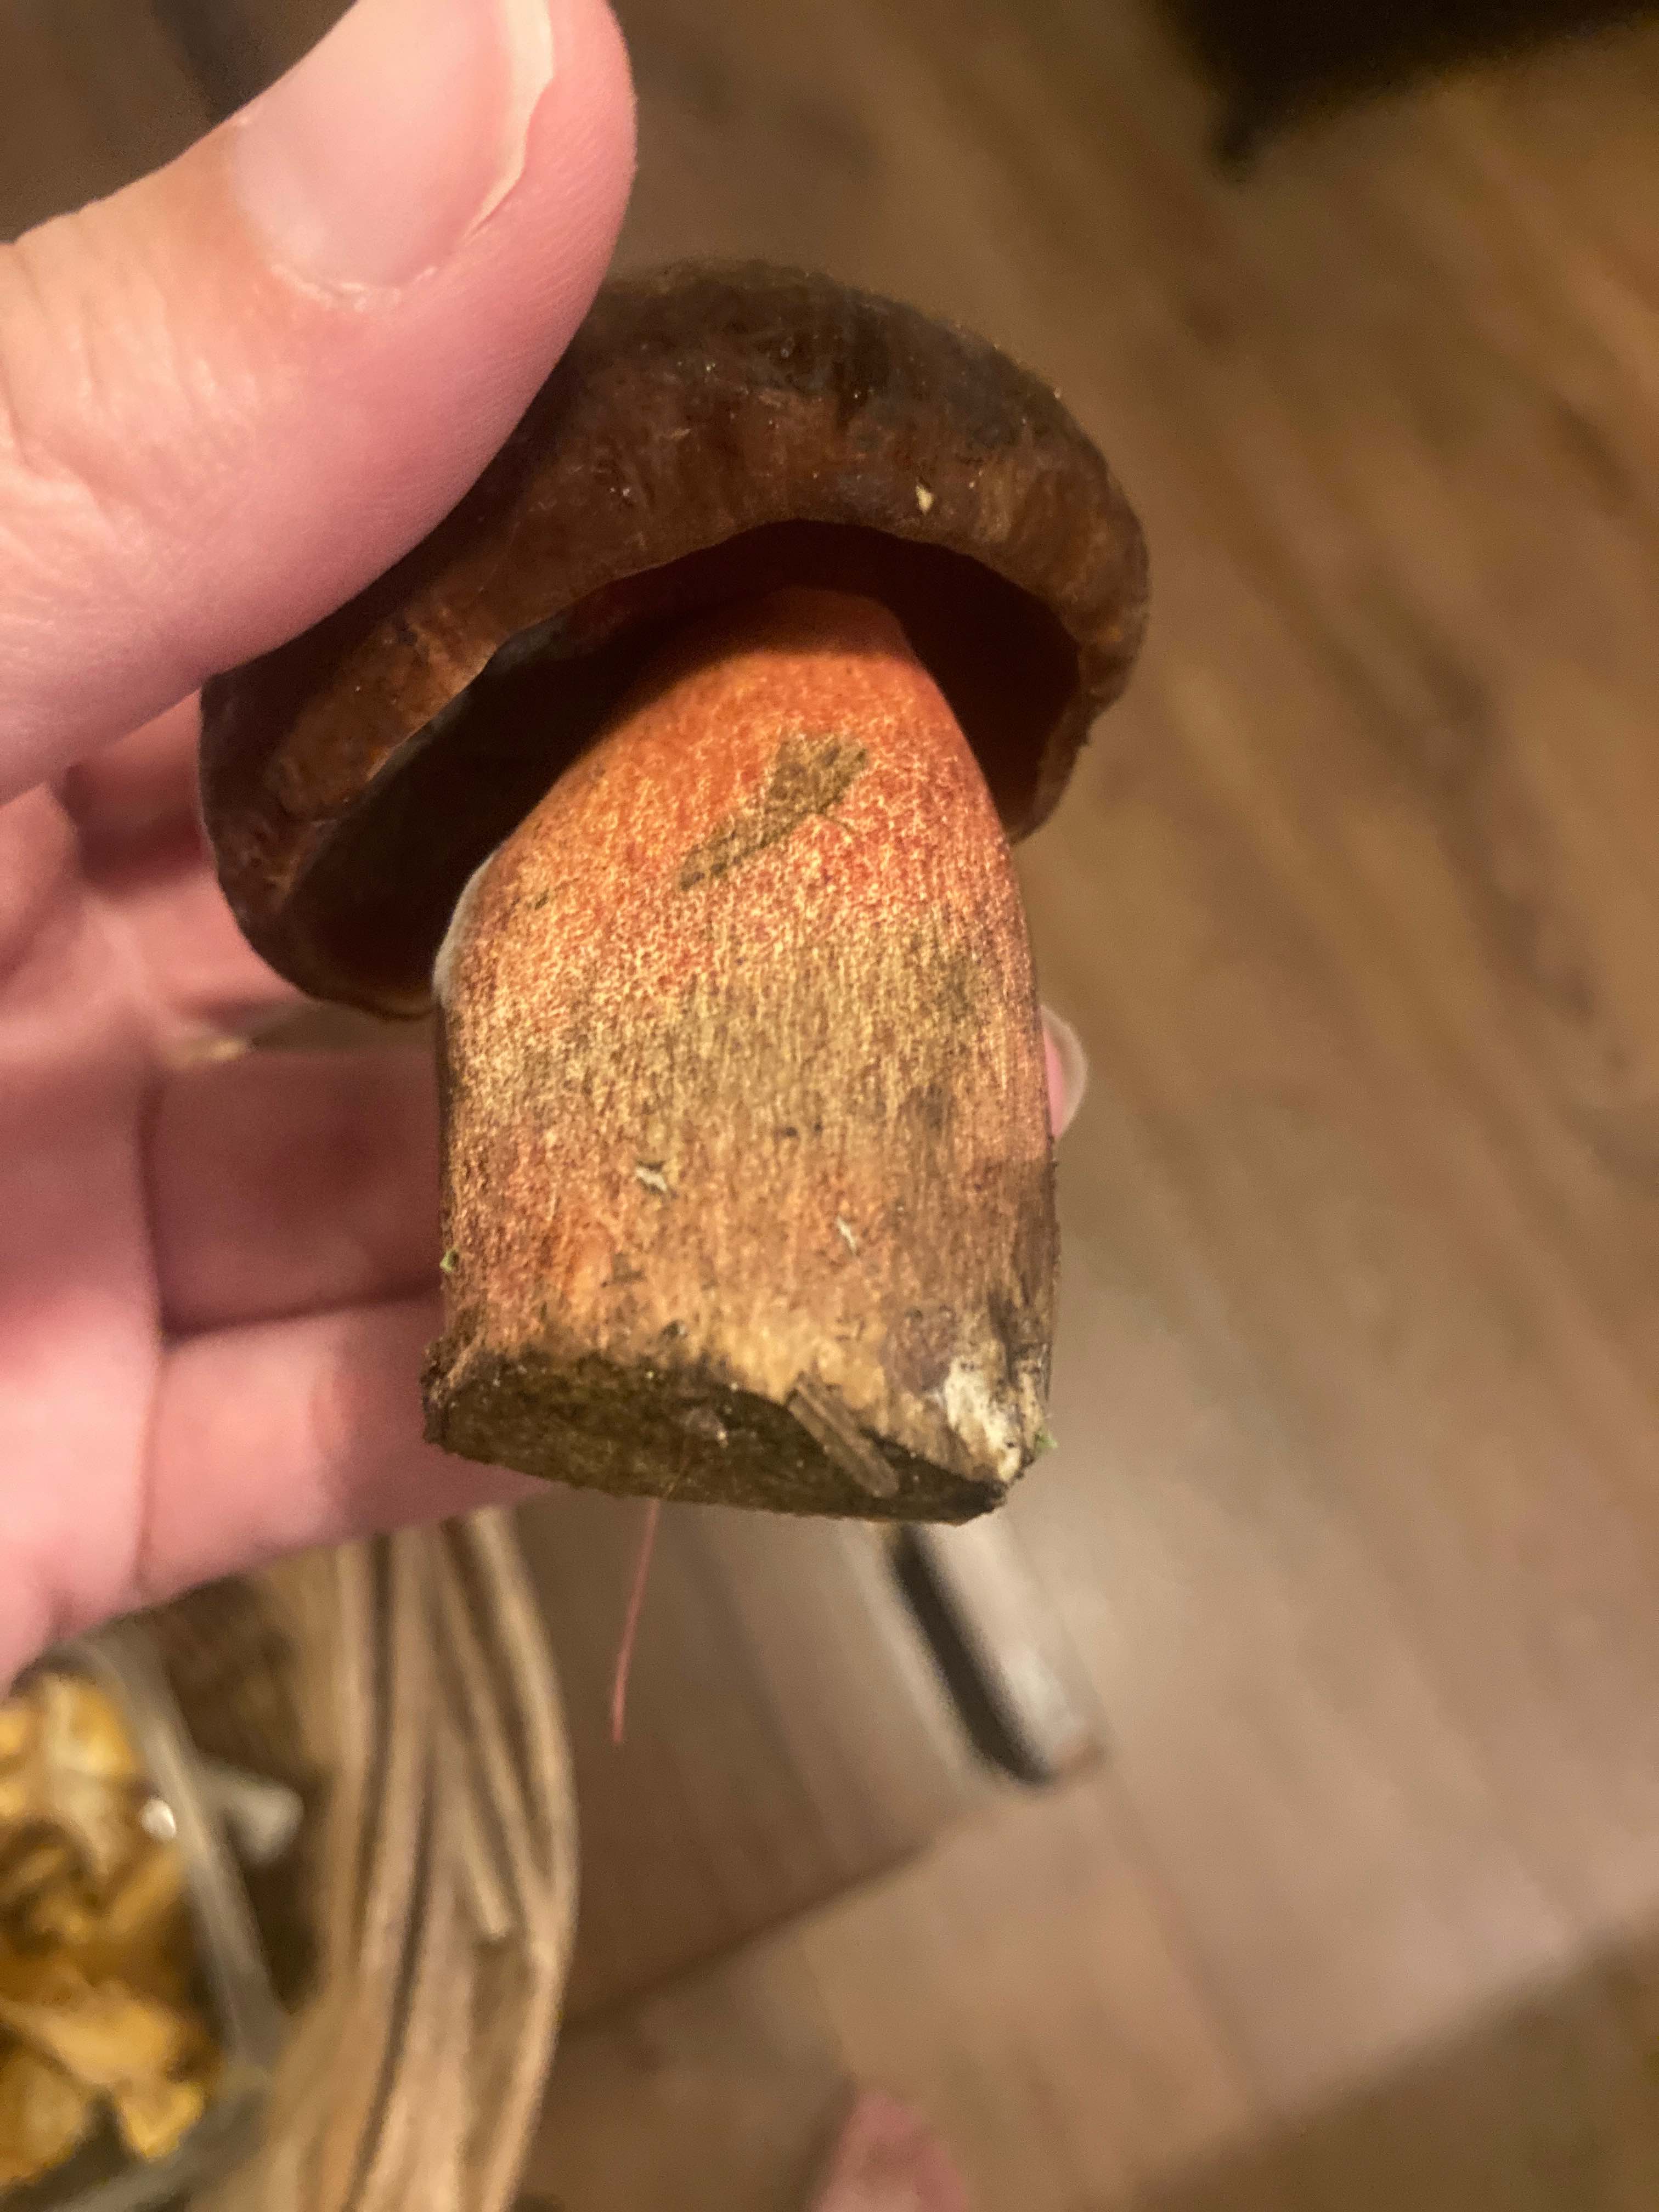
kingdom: Fungi
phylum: Basidiomycota
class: Agaricomycetes
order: Boletales
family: Boletaceae
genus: Neoboletus
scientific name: Neoboletus erythropus
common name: punktstokket indigorørhat
